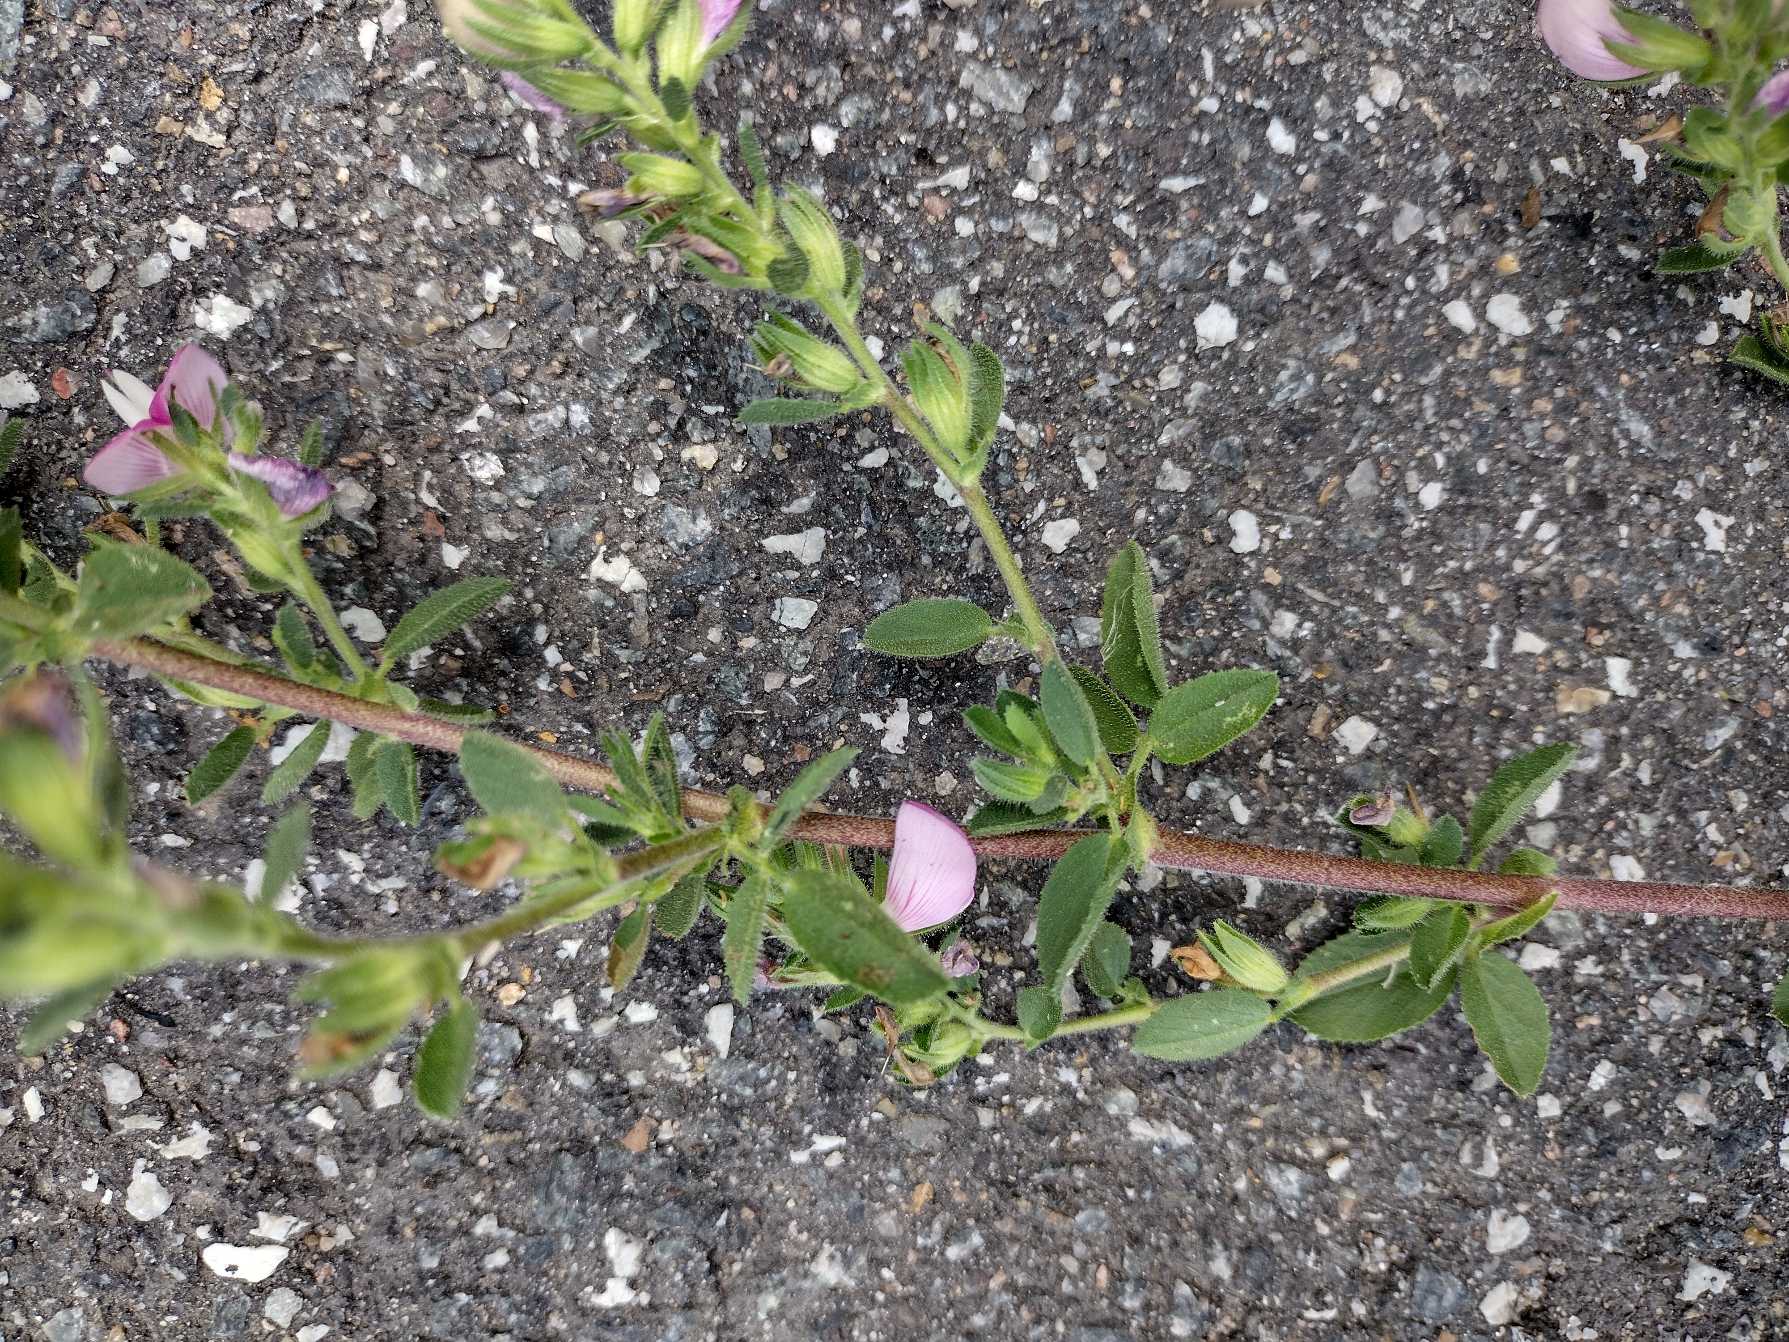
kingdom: Plantae
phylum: Tracheophyta
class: Magnoliopsida
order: Fabales
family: Fabaceae
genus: Ononis
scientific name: Ononis spinosa
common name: Mark-krageklo
